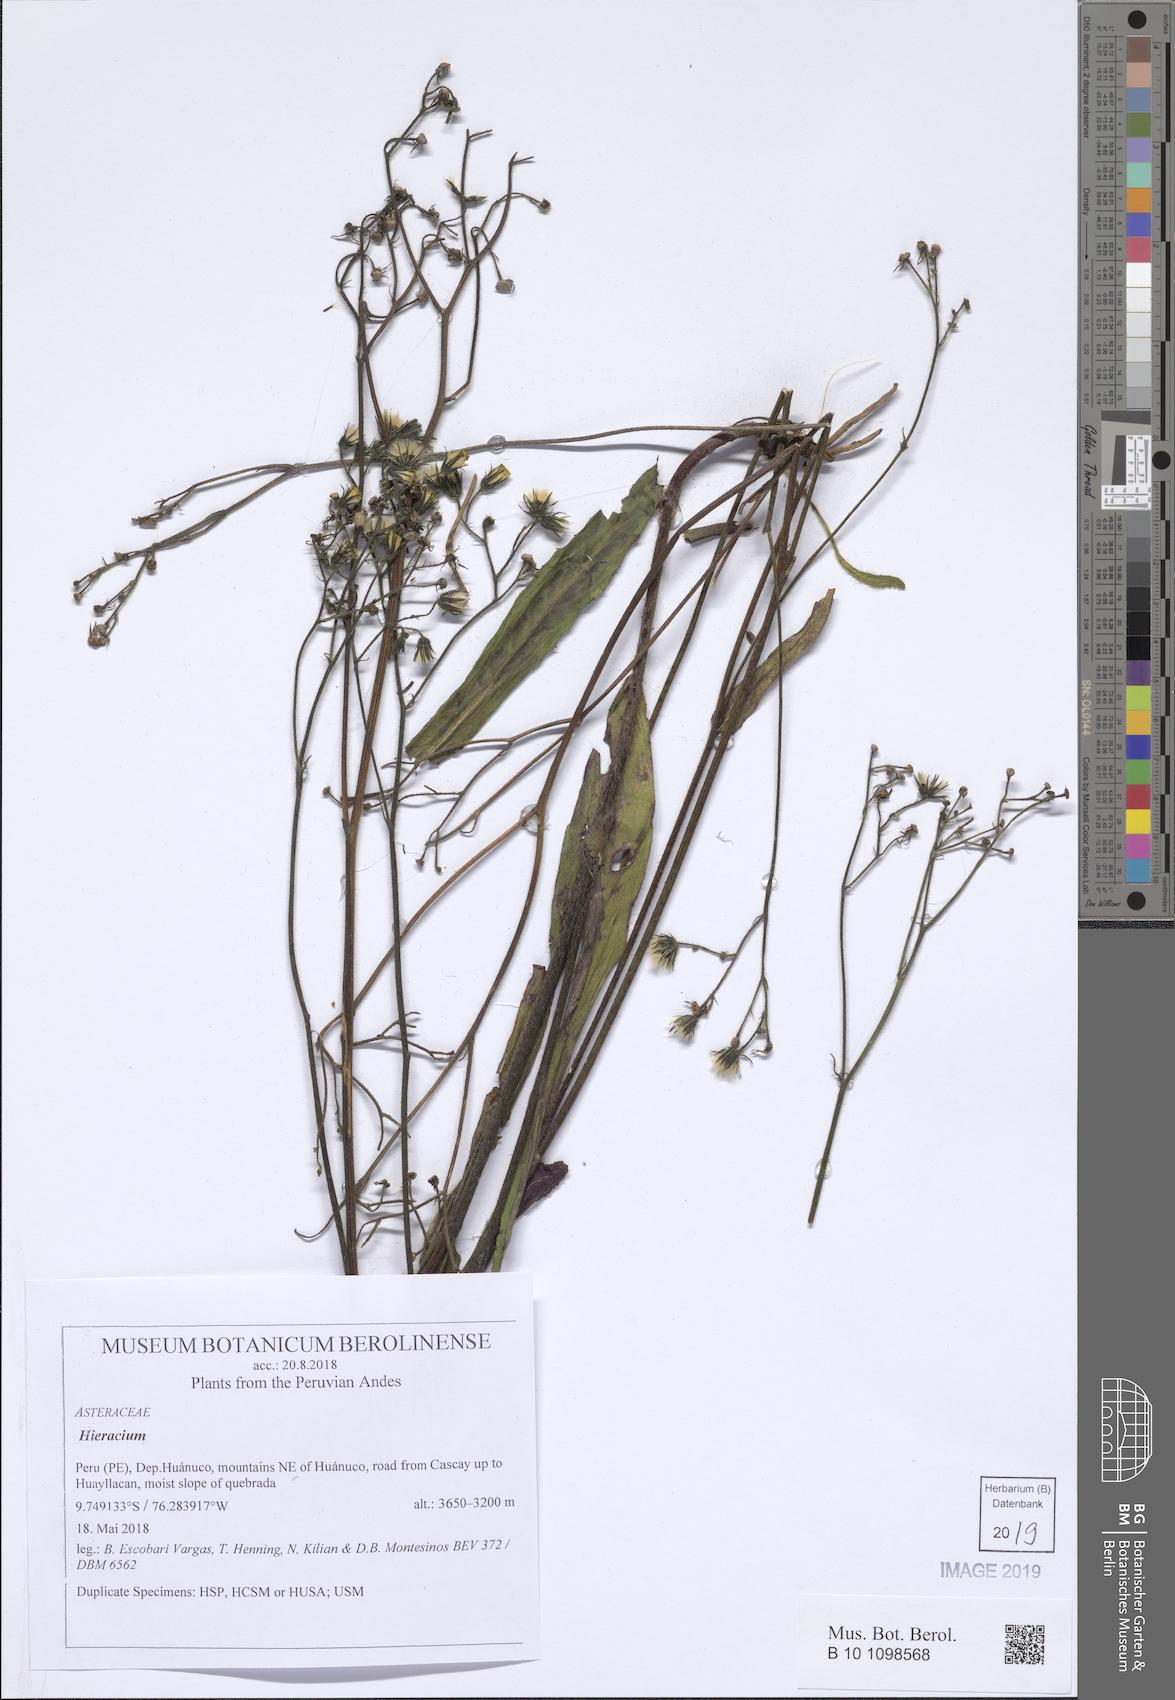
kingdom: Plantae
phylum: Tracheophyta
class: Magnoliopsida
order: Asterales
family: Asteraceae
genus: Hieracium
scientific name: Hieracium
